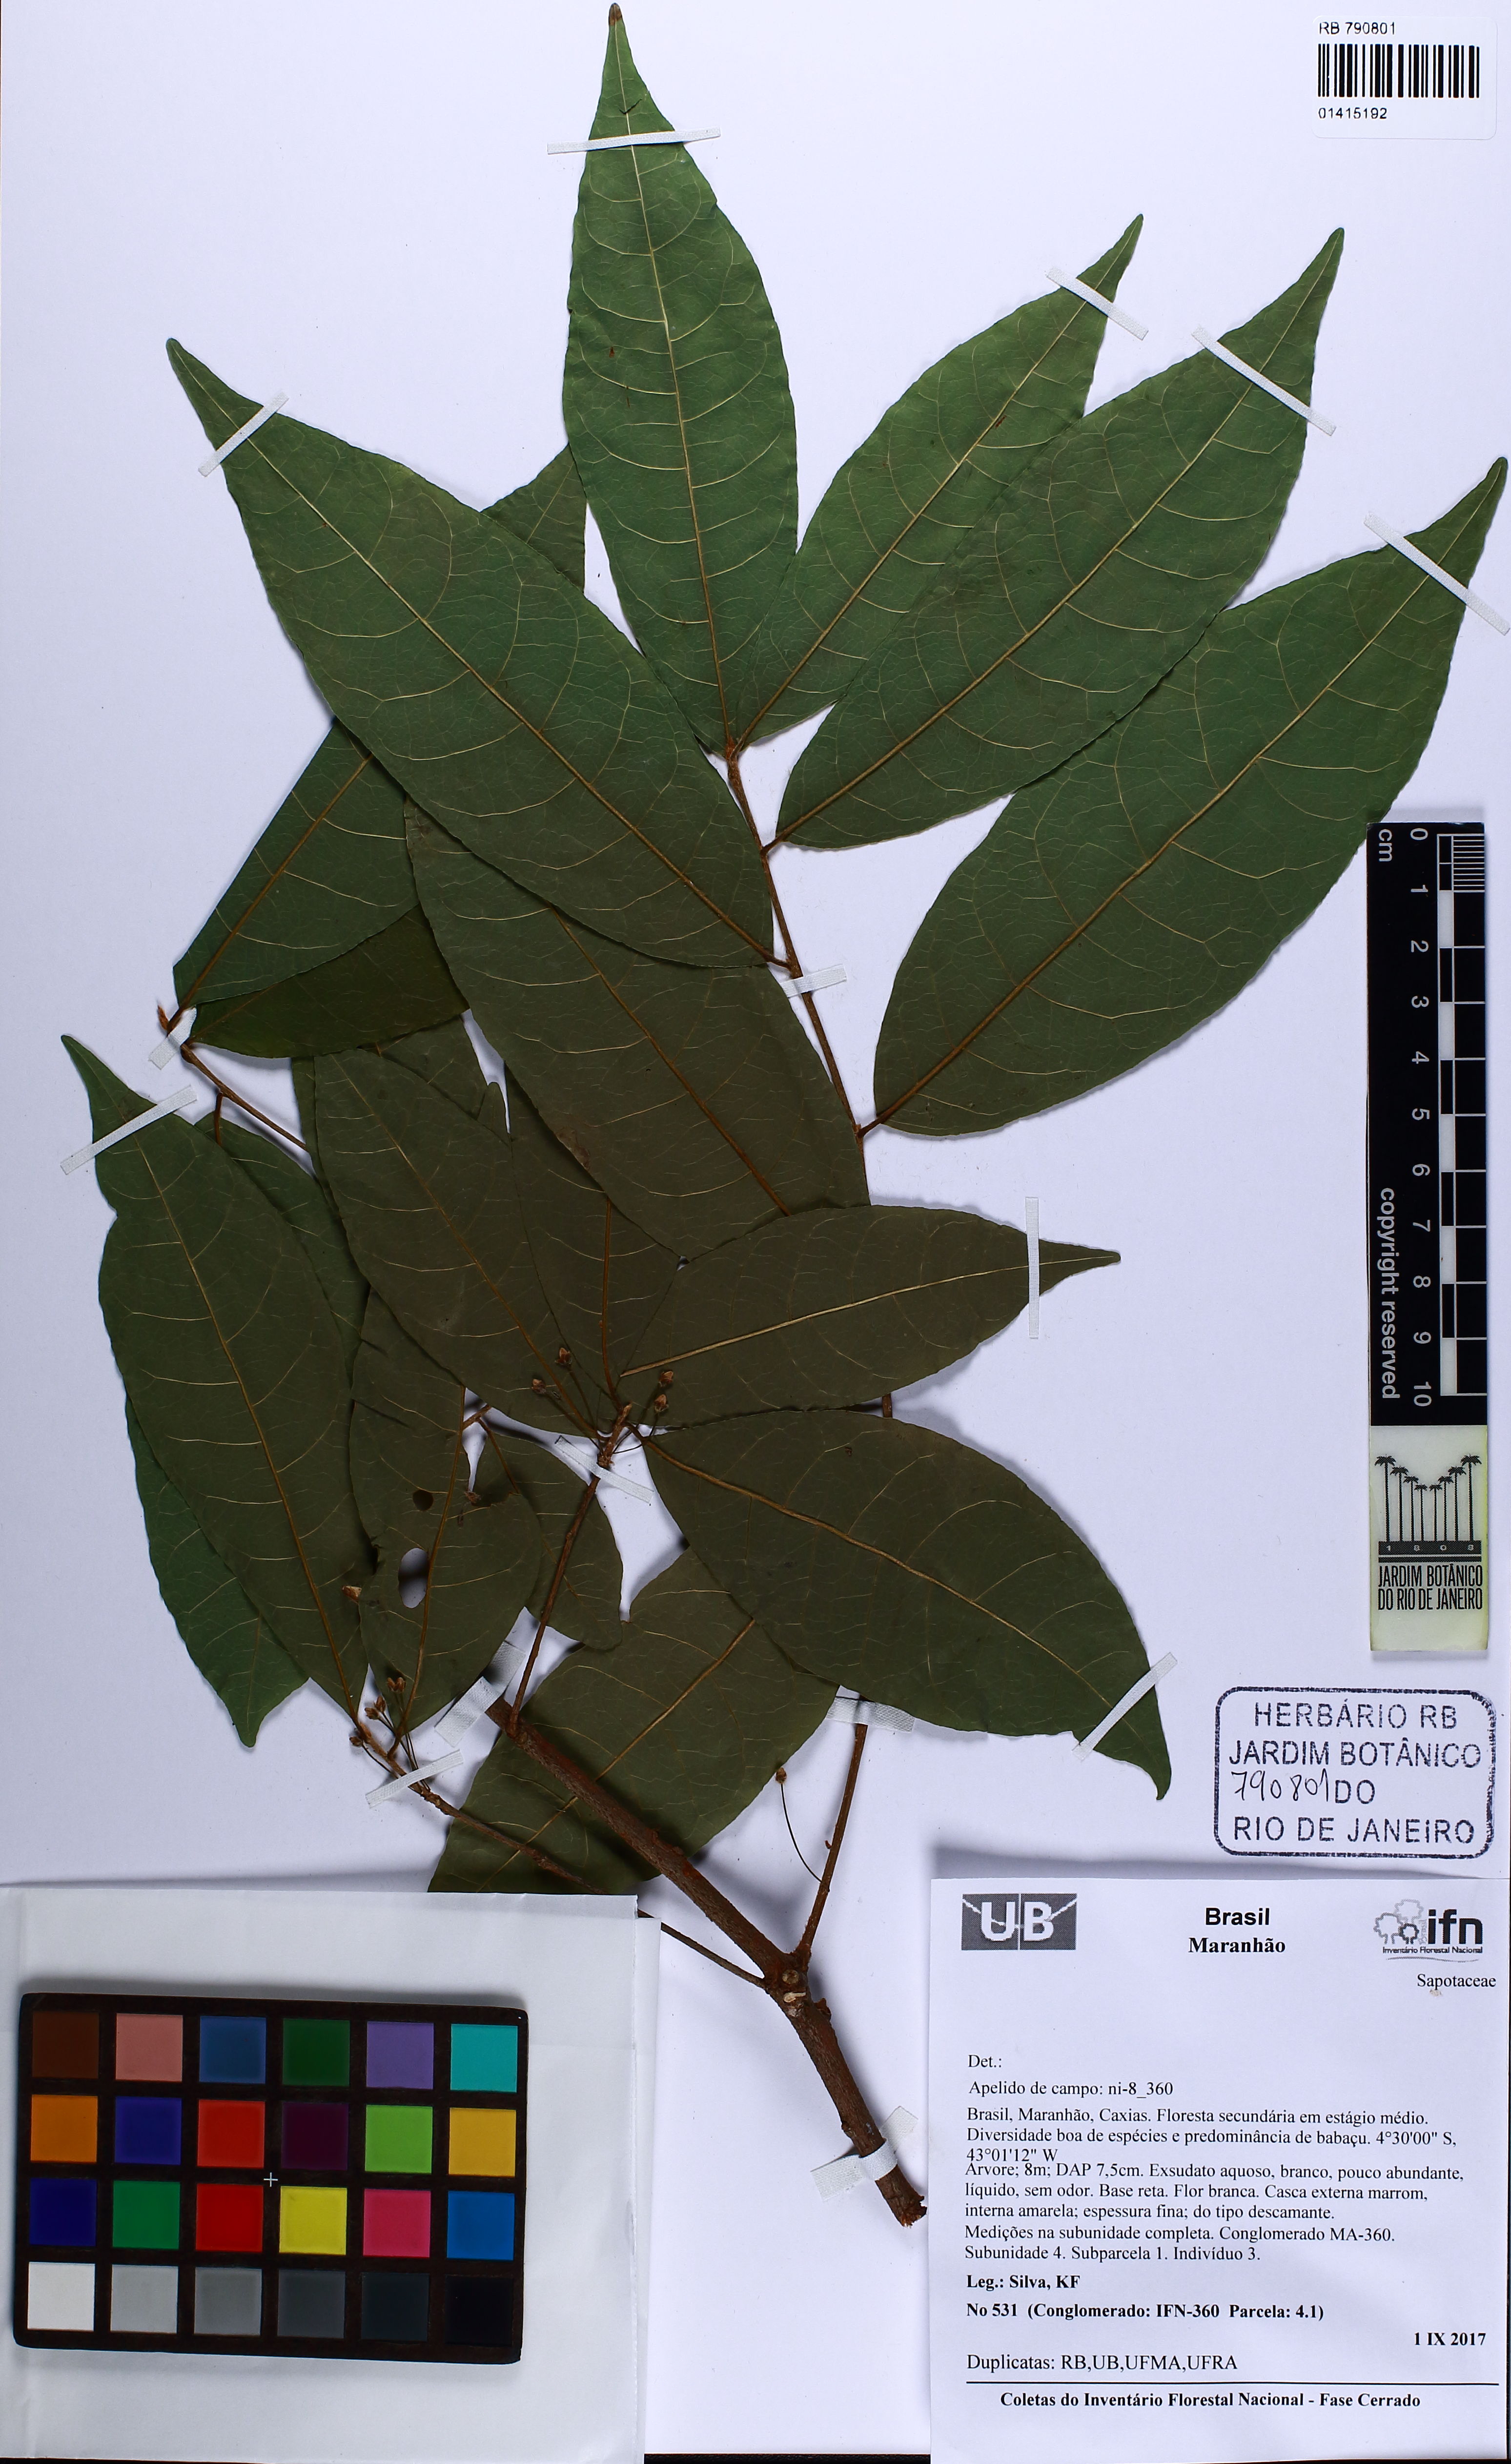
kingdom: Plantae
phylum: Tracheophyta
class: Magnoliopsida
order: Ericales
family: Sapotaceae
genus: Sarcaulus
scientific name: Sarcaulus inflexus
